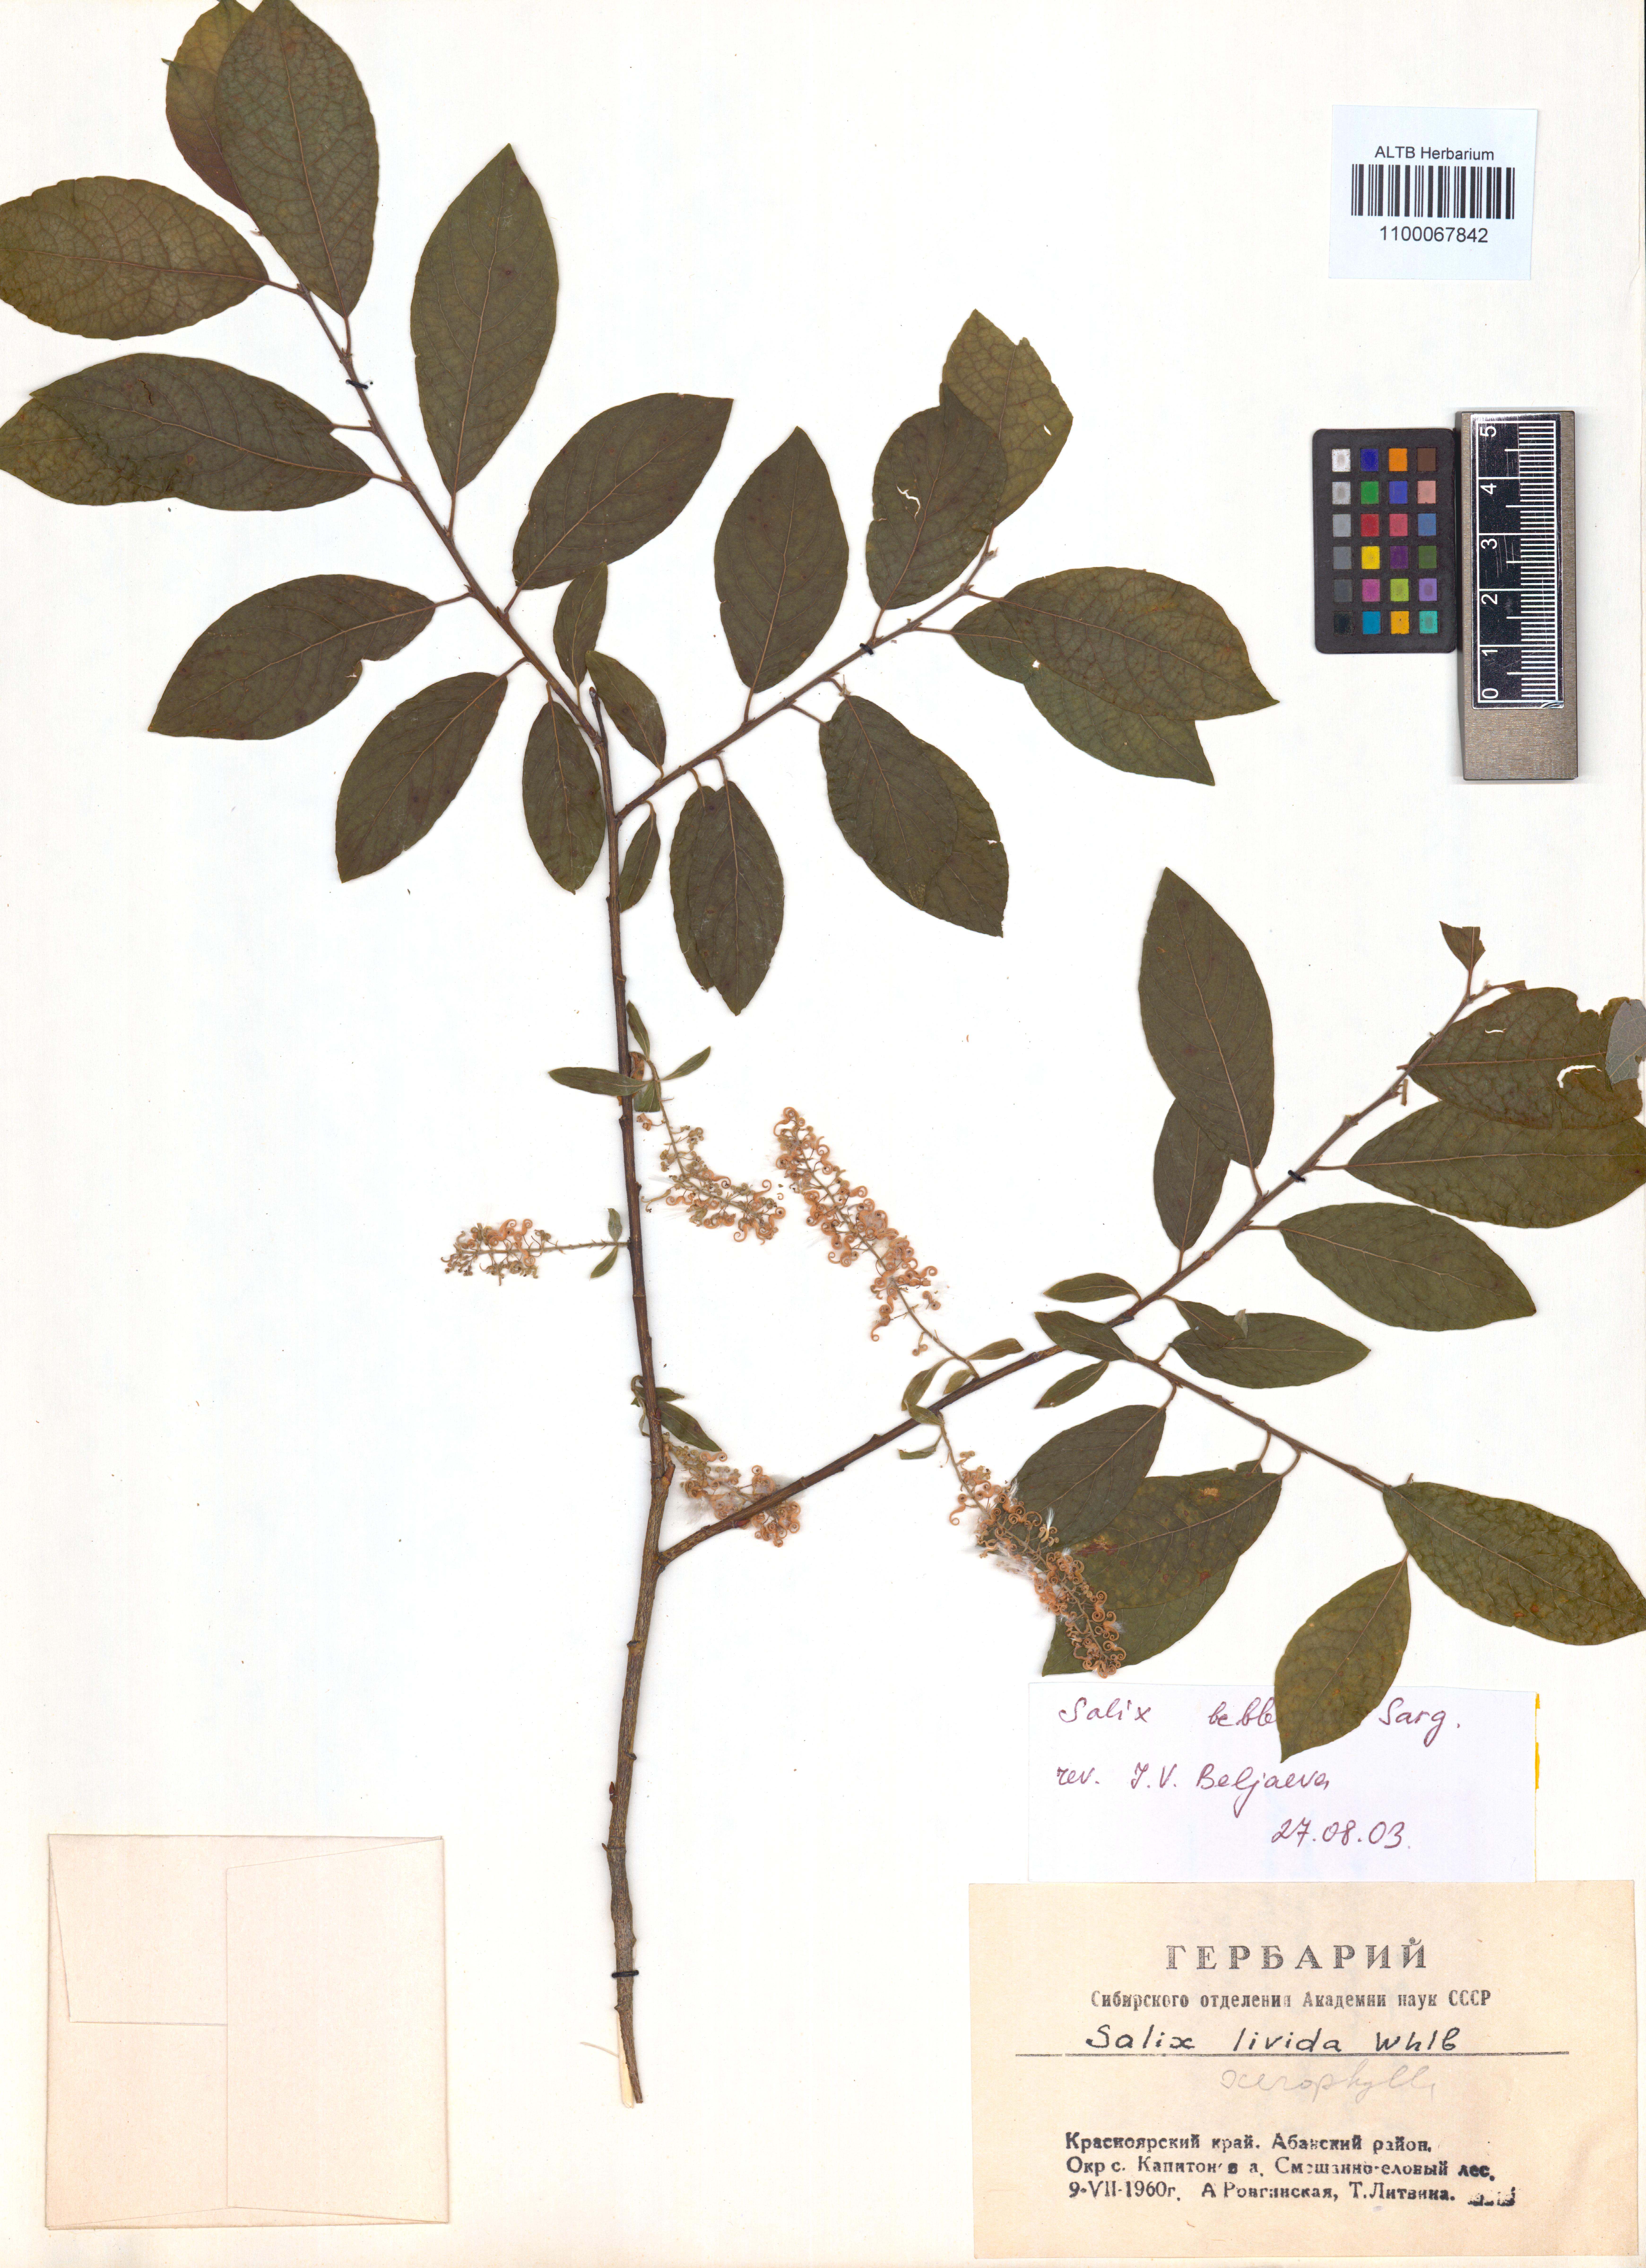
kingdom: Plantae
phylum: Tracheophyta
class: Magnoliopsida
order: Malpighiales
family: Salicaceae
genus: Salix
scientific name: Salix bebbiana
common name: Bebb's willow
